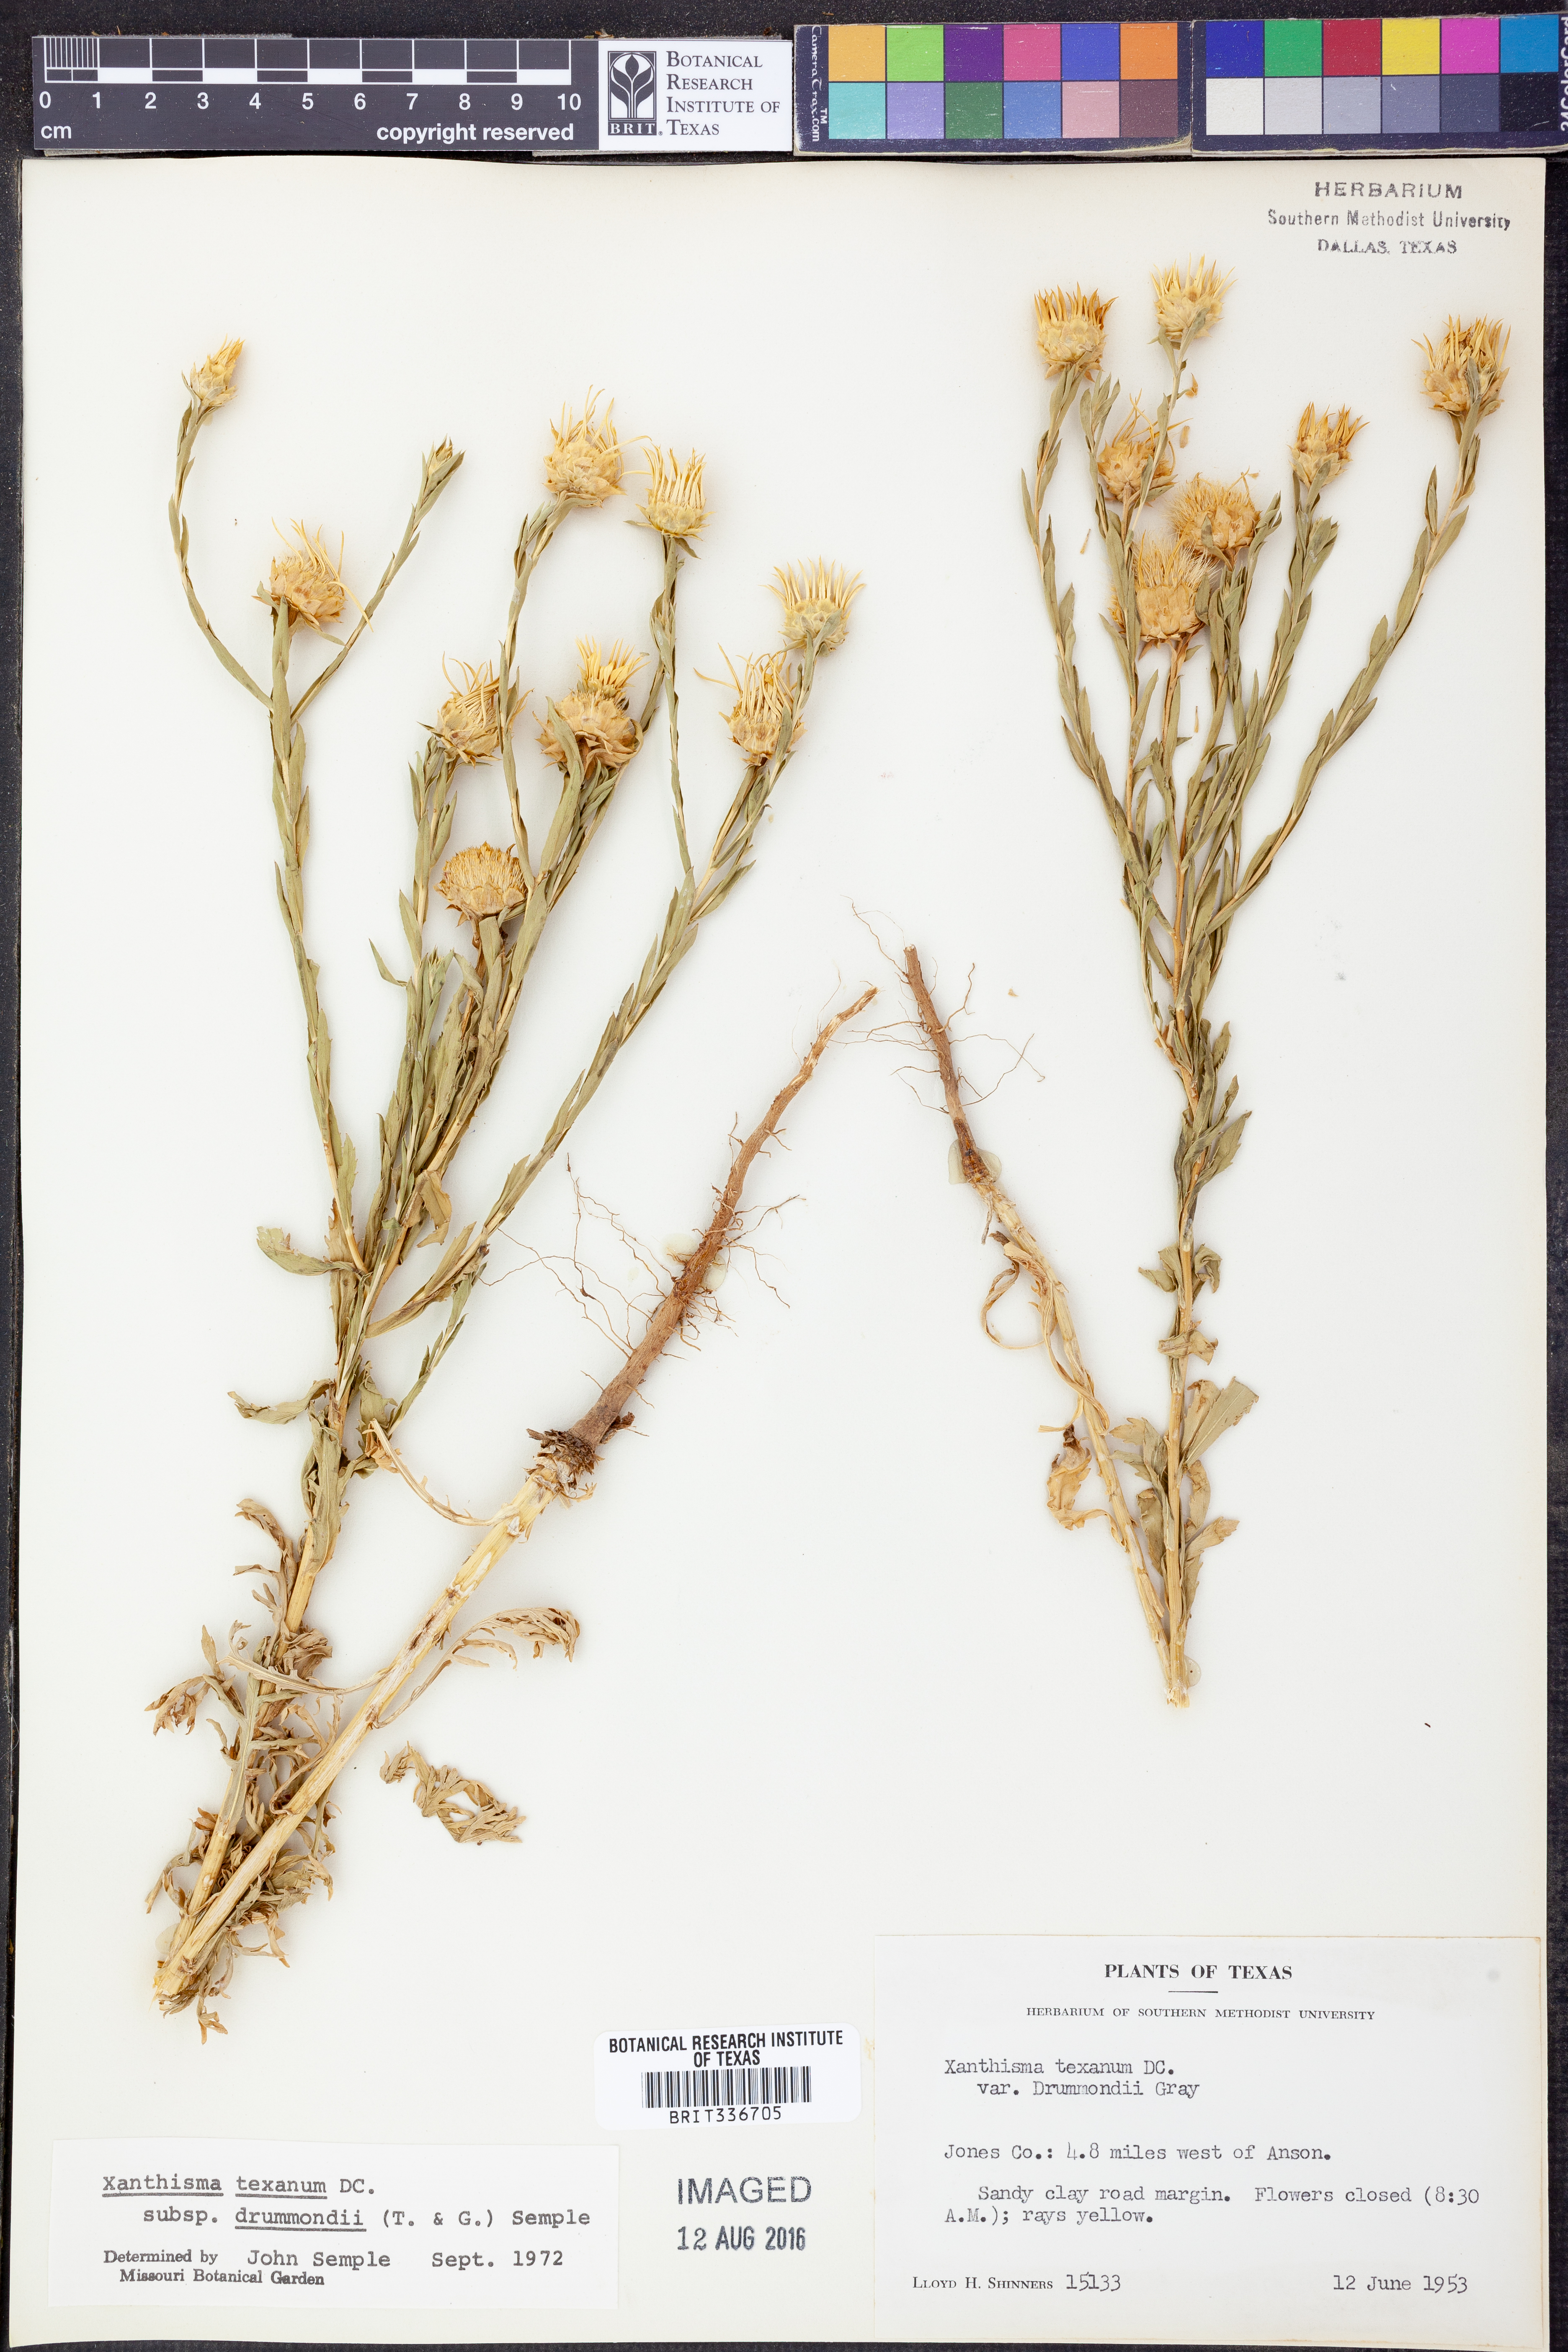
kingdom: Plantae
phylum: Tracheophyta
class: Magnoliopsida
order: Asterales
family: Asteraceae
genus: Xanthisma
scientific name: Xanthisma texanum
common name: Texas sleepy daisy
